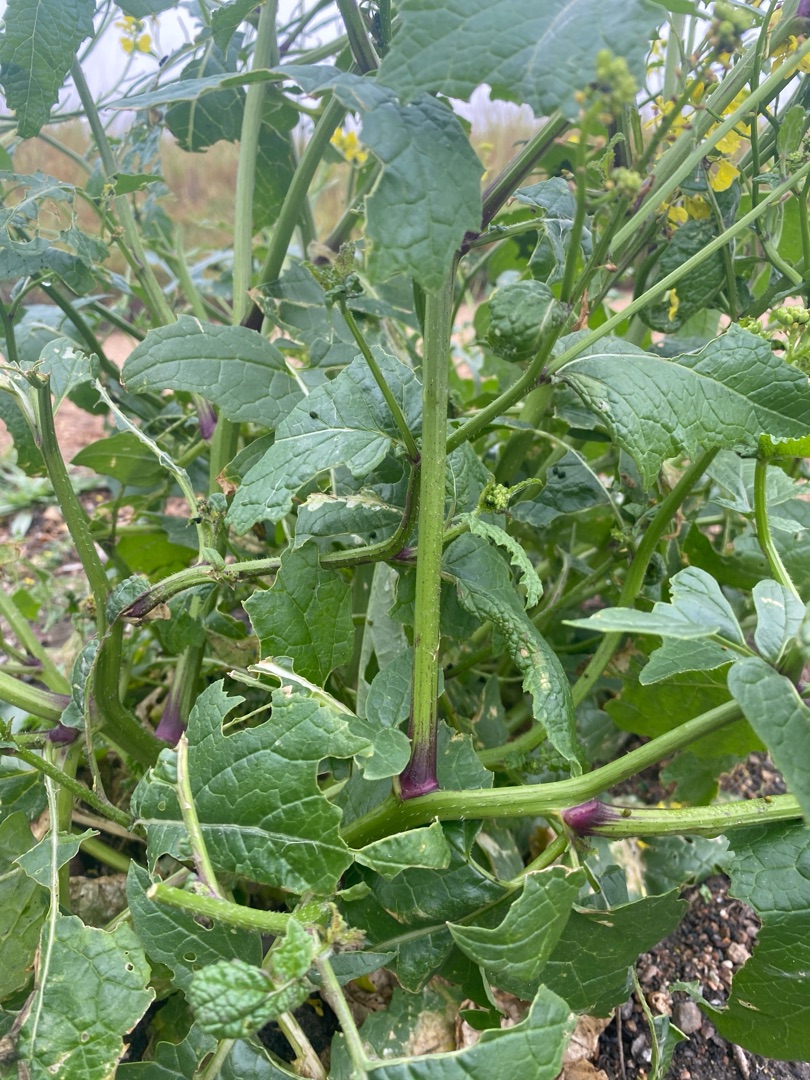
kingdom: Plantae
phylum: Tracheophyta
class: Magnoliopsida
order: Brassicales
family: Brassicaceae
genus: Sinapis
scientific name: Sinapis arvensis
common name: Ager-sennep
